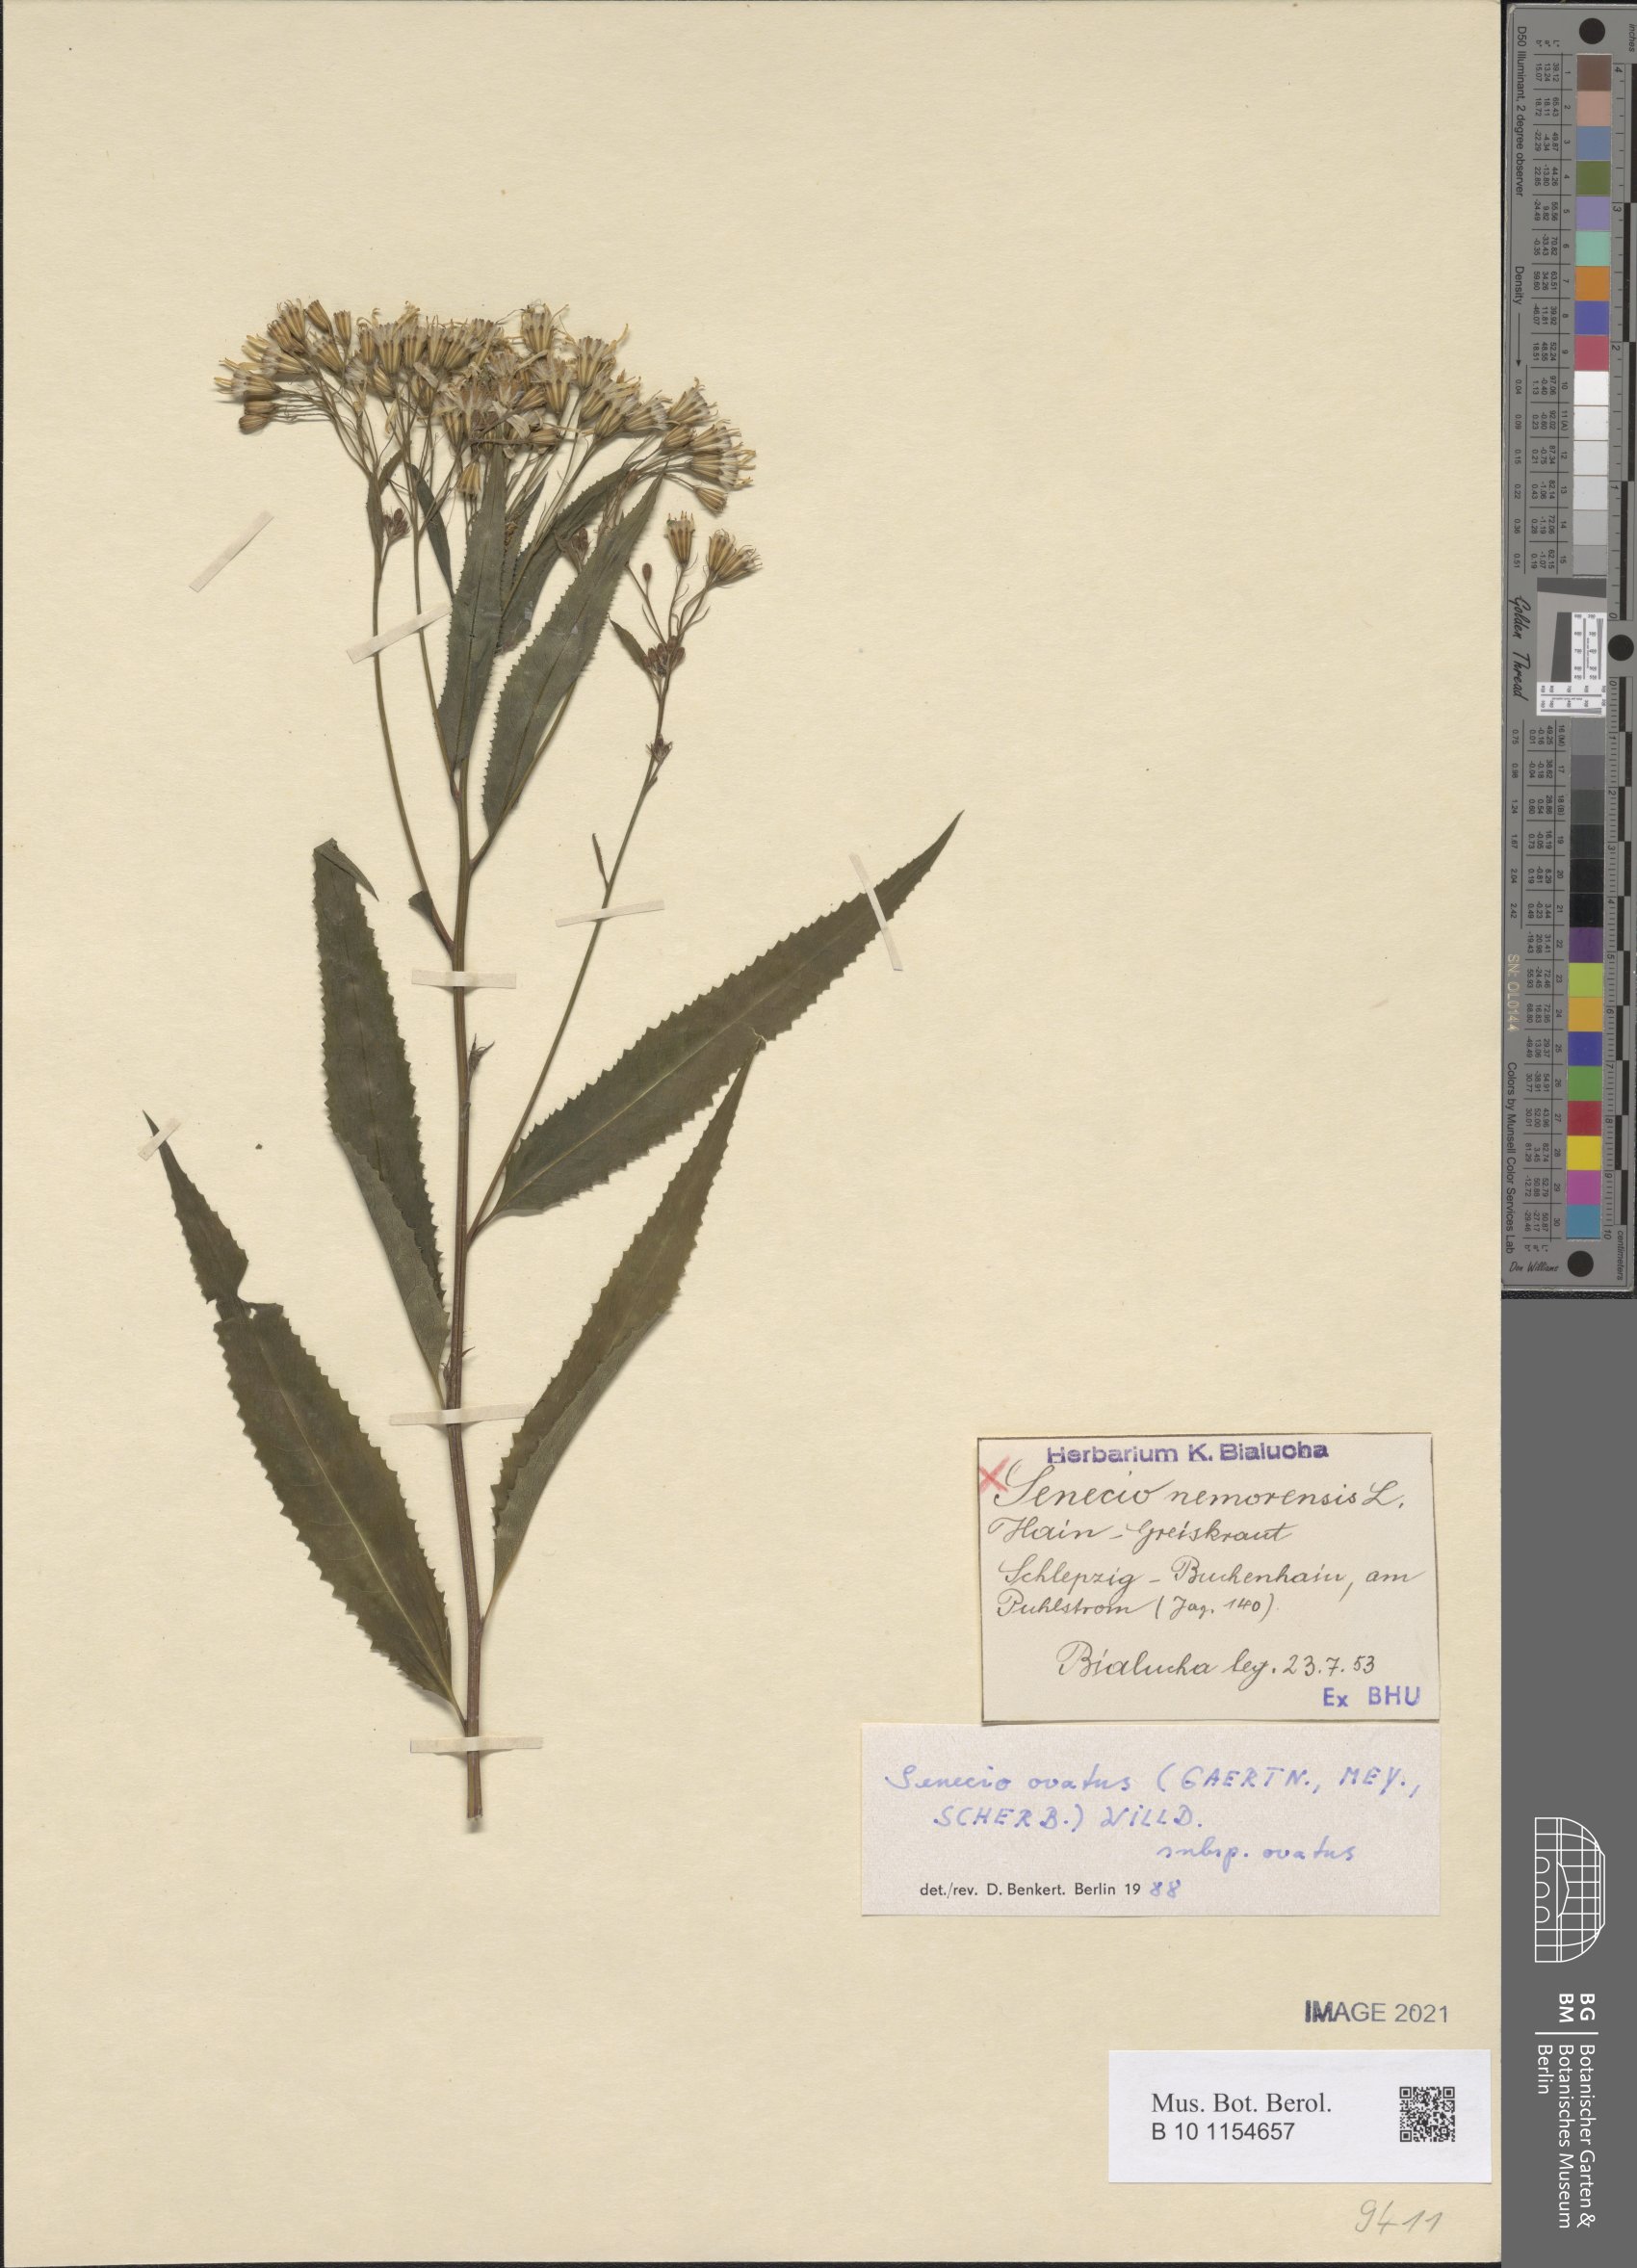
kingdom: Plantae
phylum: Tracheophyta
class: Magnoliopsida
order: Asterales
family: Asteraceae
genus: Senecio
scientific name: Senecio ovatus
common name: Wood ragwort
